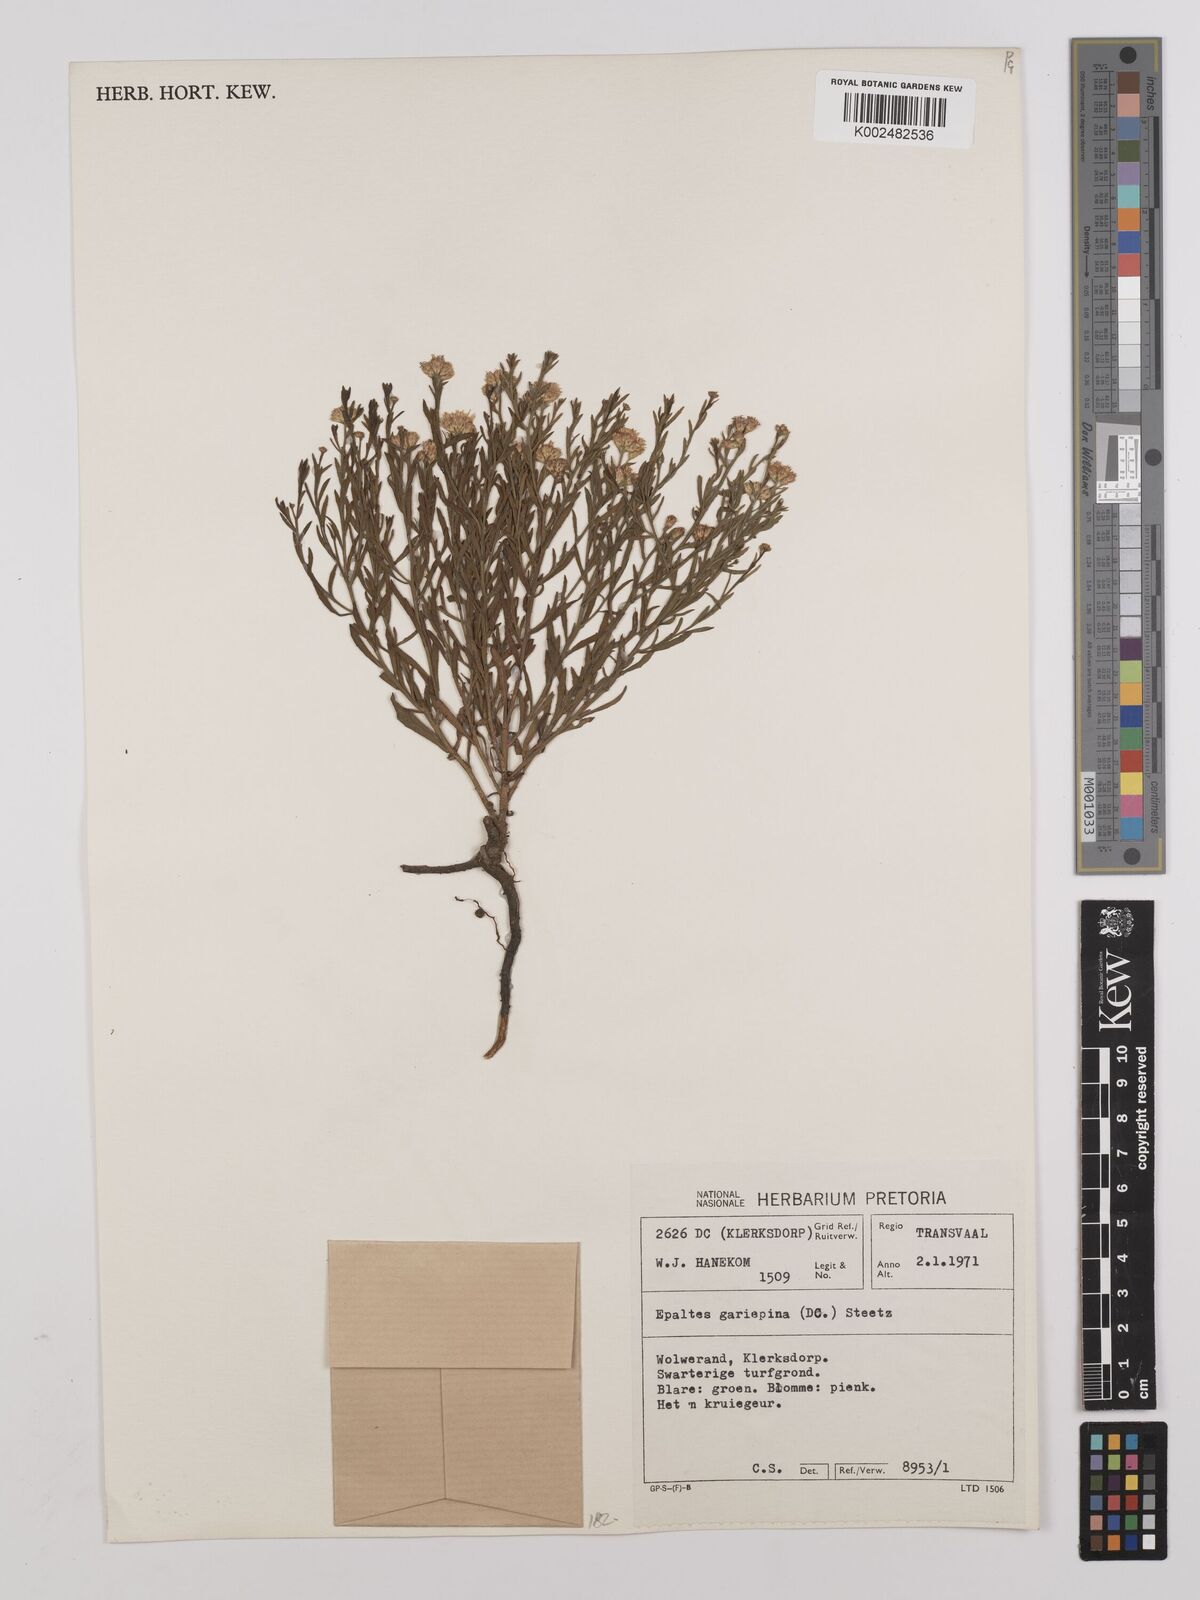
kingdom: Plantae
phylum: Tracheophyta
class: Magnoliopsida
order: Asterales
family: Asteraceae
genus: Litogyne
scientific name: Litogyne gariepina
